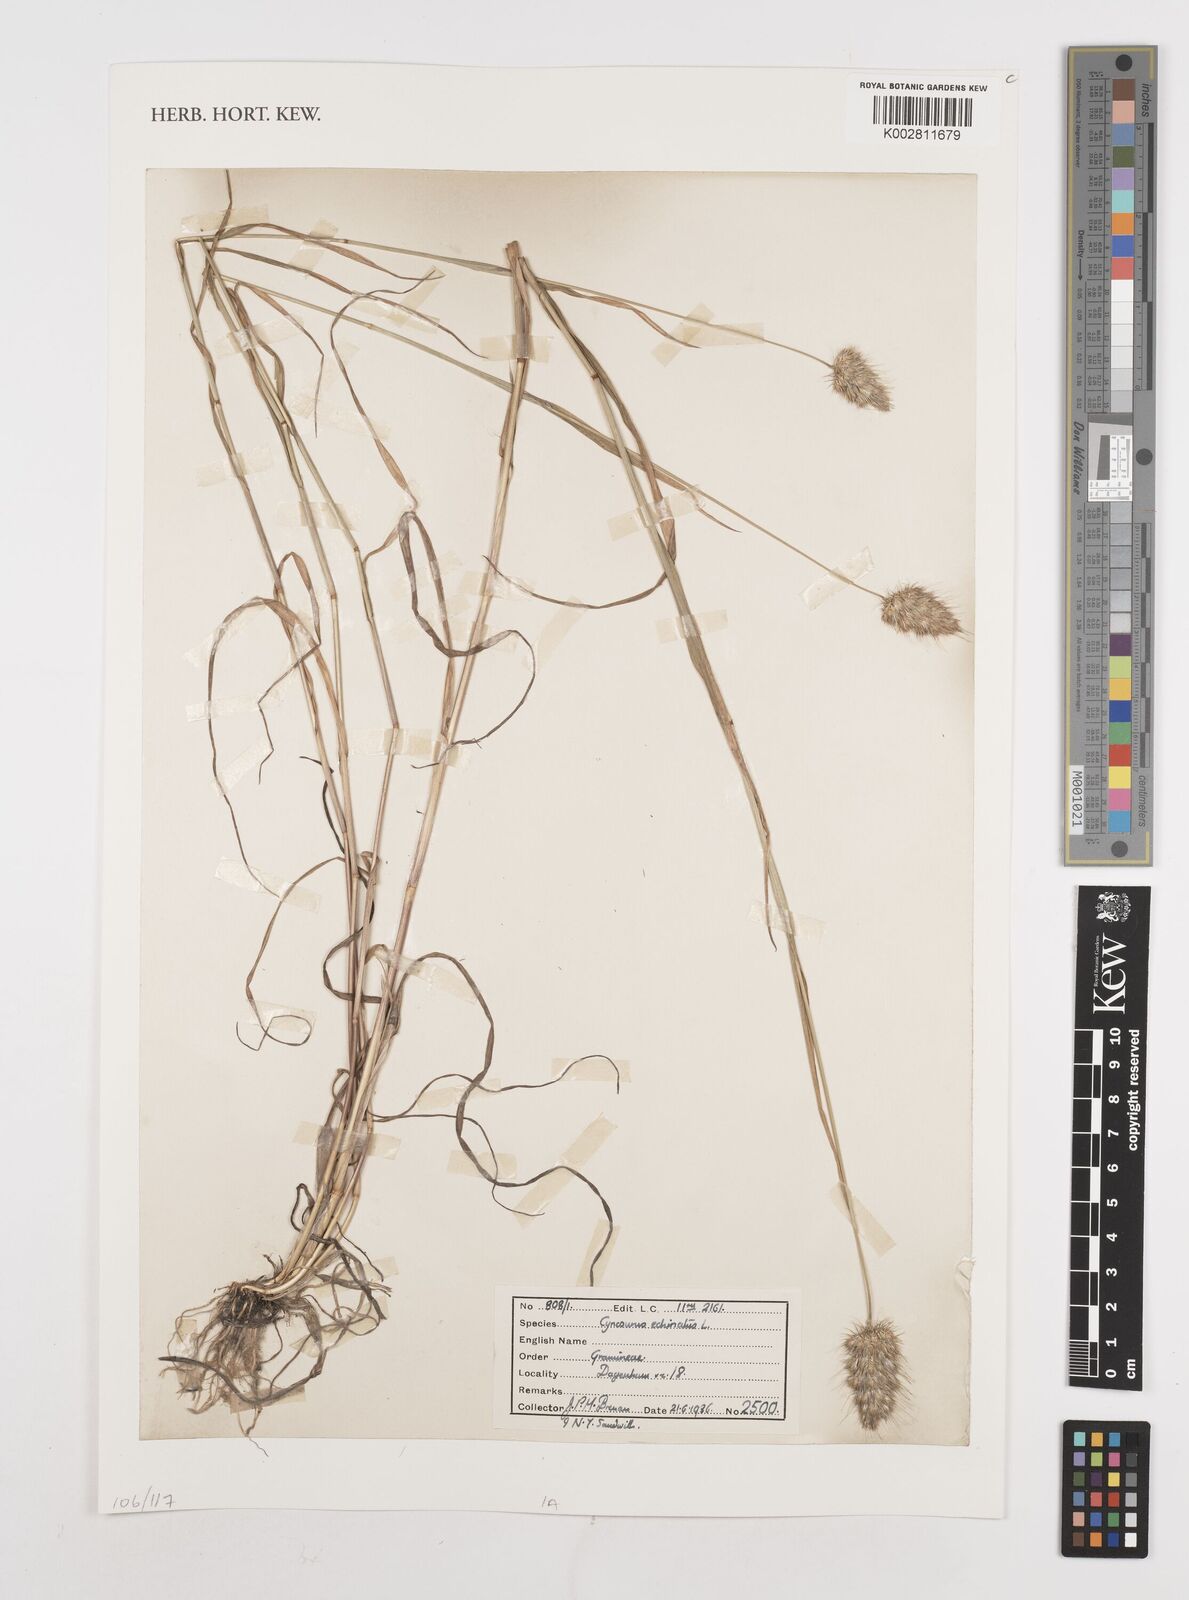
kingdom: Plantae
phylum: Tracheophyta
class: Liliopsida
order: Poales
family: Poaceae
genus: Cynosurus
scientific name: Cynosurus echinatus
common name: Rough dog's-tail
